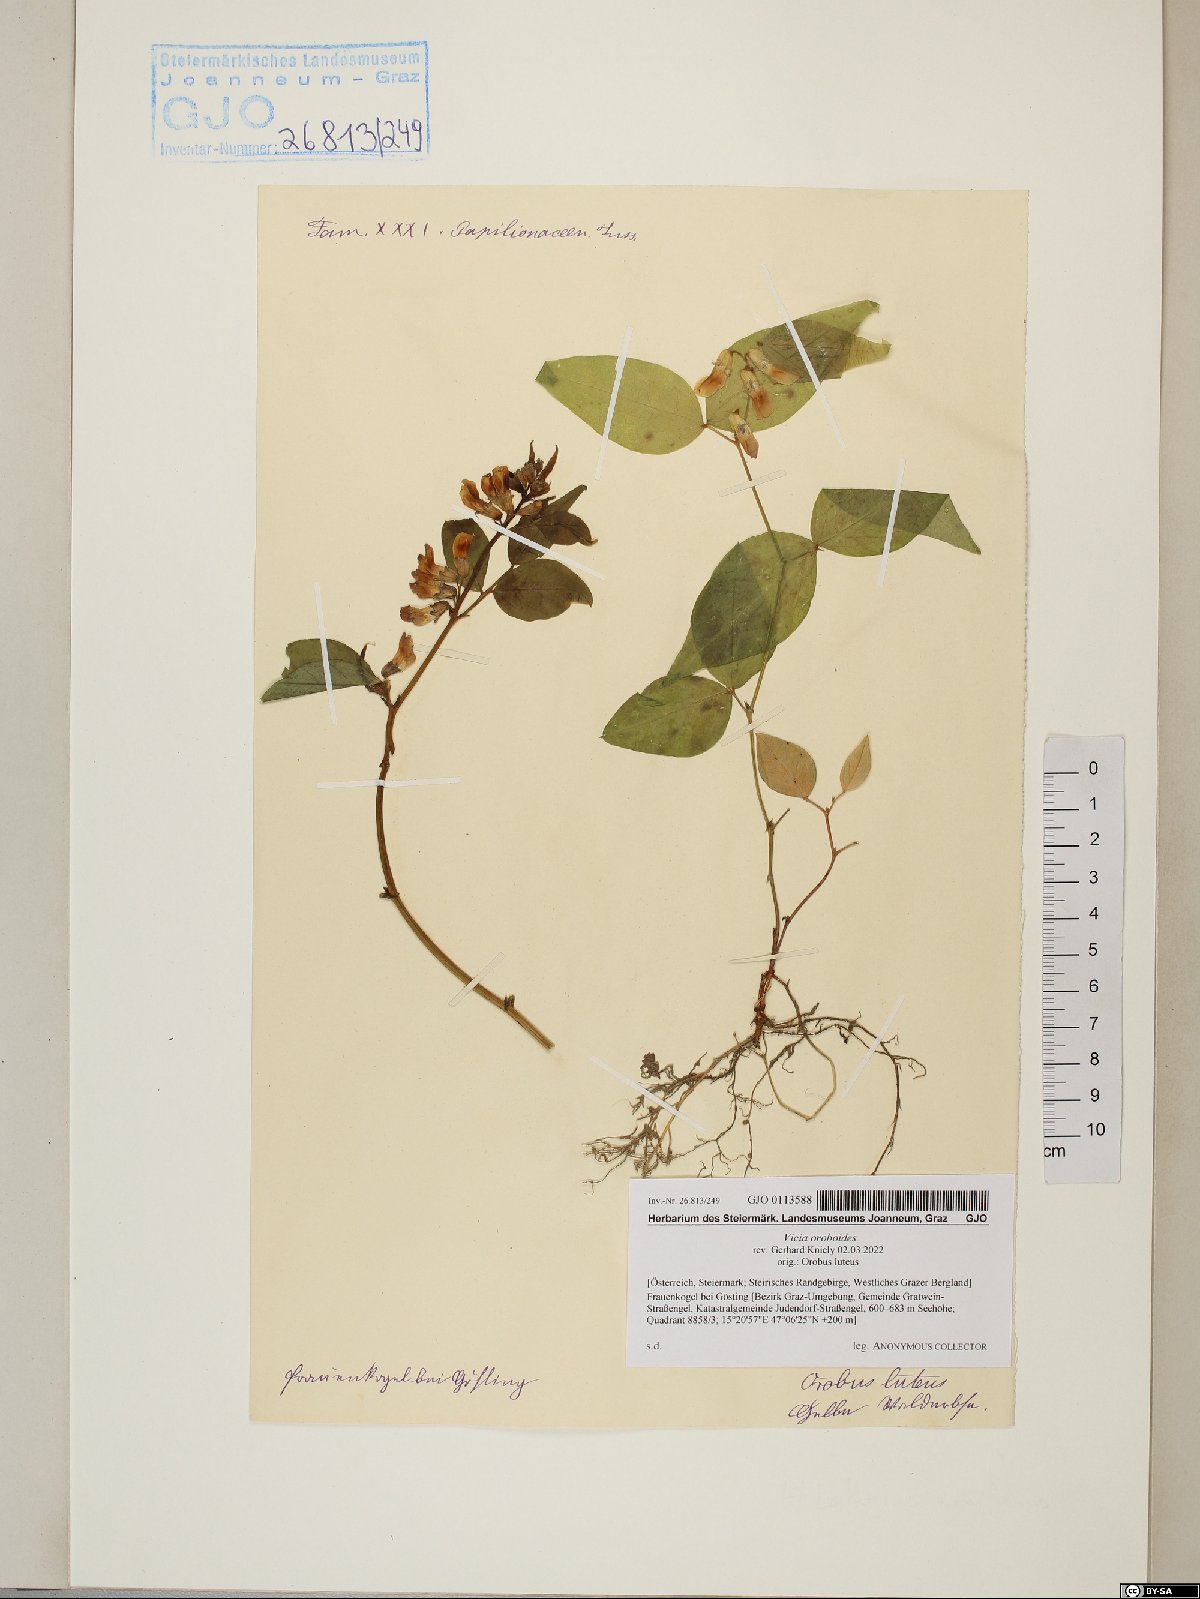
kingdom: Plantae
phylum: Tracheophyta
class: Magnoliopsida
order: Fabales
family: Fabaceae
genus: Vicia
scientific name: Vicia oroboides
